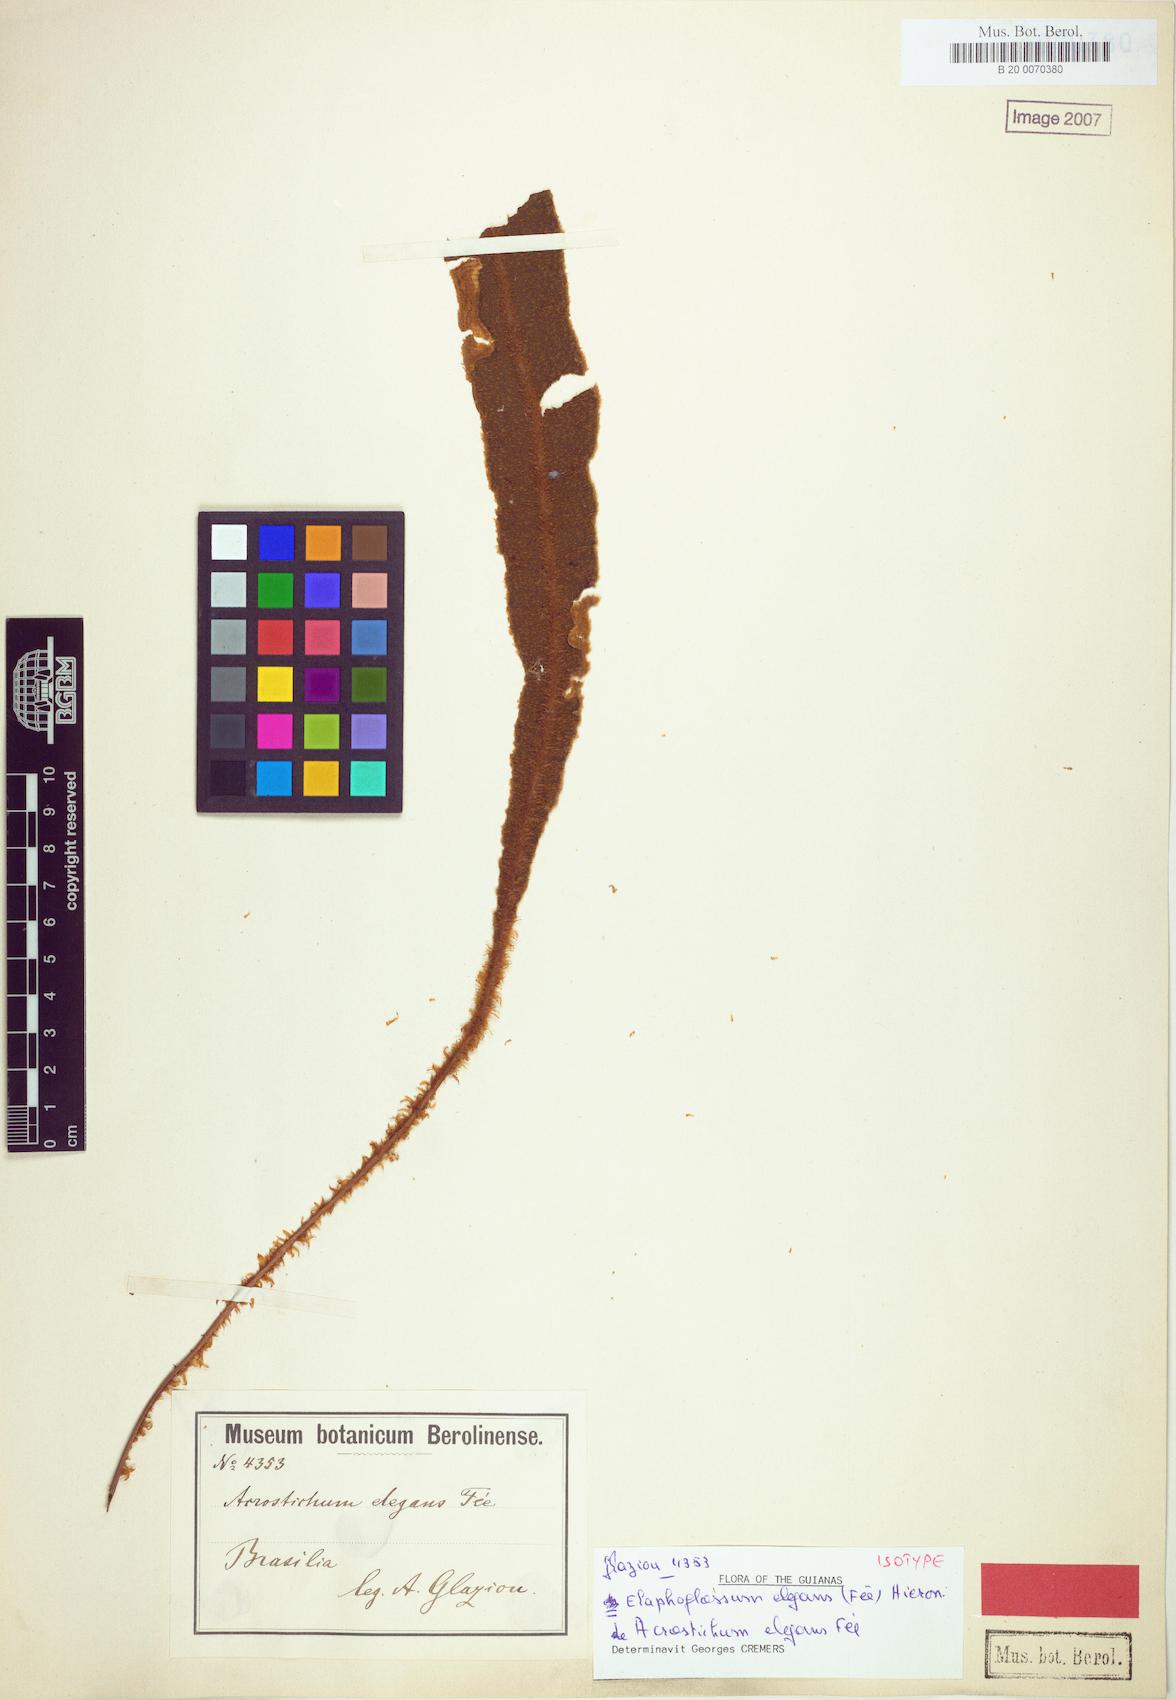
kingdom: Plantae
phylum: Tracheophyta
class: Polypodiopsida
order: Polypodiales
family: Dryopteridaceae
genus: Elaphoglossum
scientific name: Elaphoglossum plumosum
